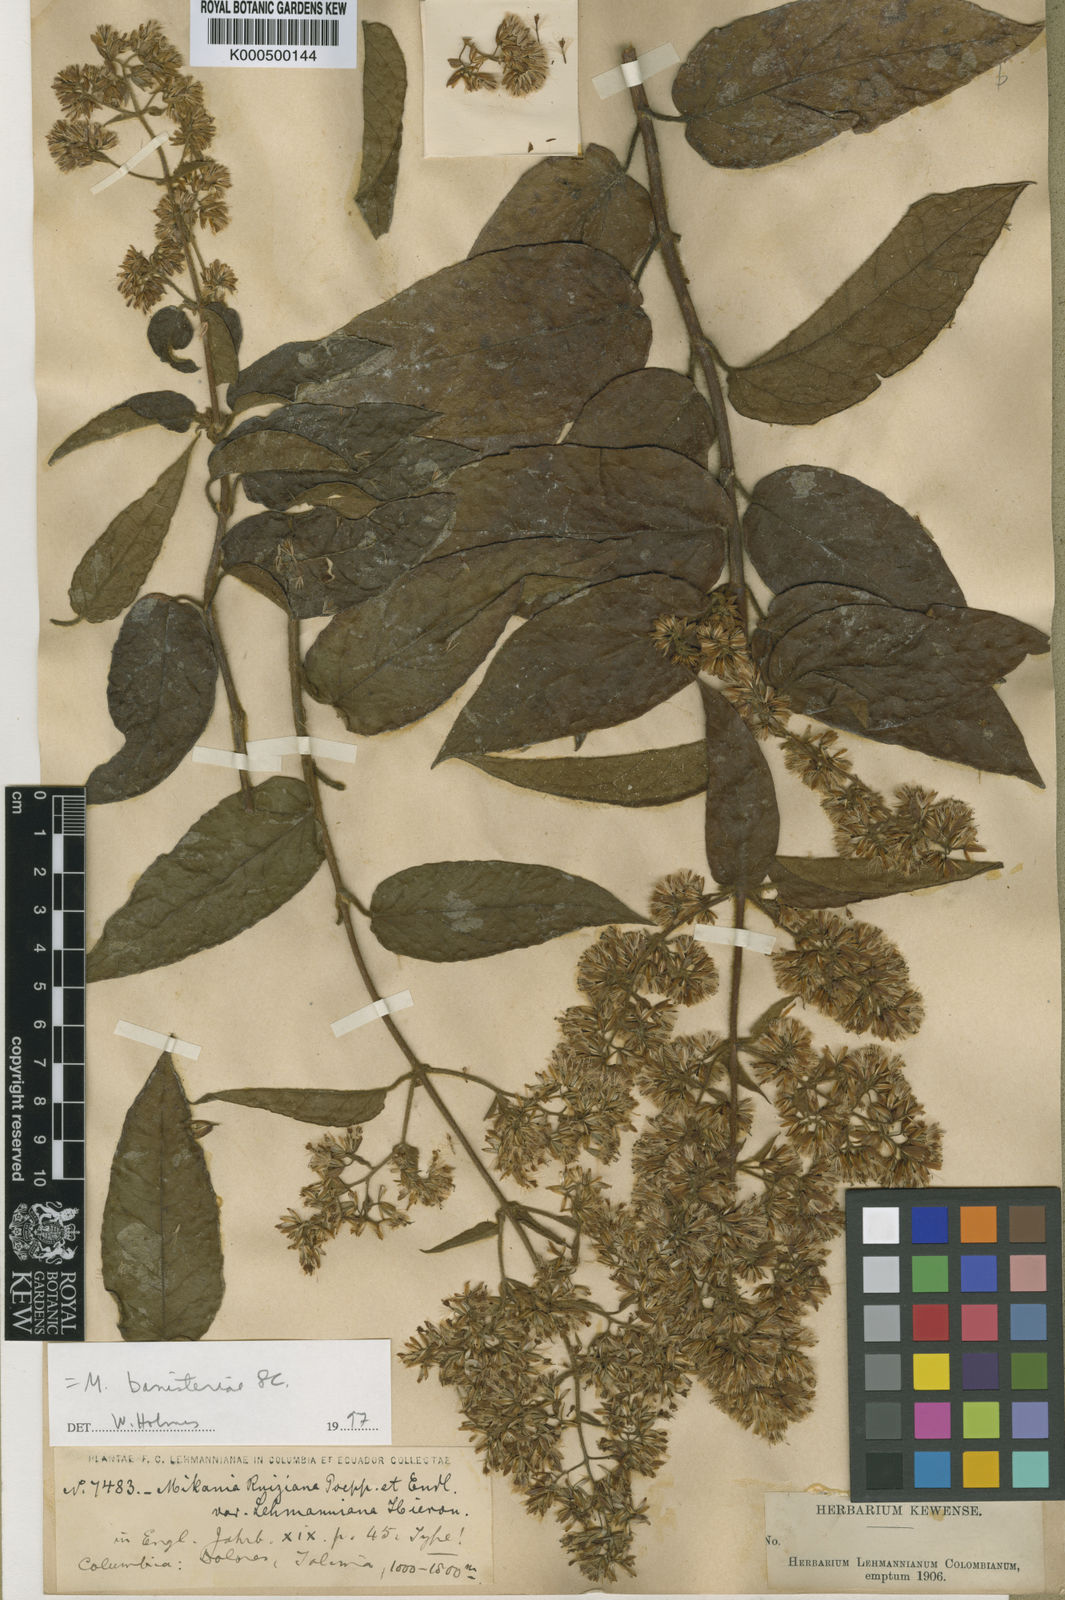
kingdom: Plantae
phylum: Tracheophyta
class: Magnoliopsida
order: Asterales
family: Asteraceae
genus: Mikania
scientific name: Mikania banisteriae
